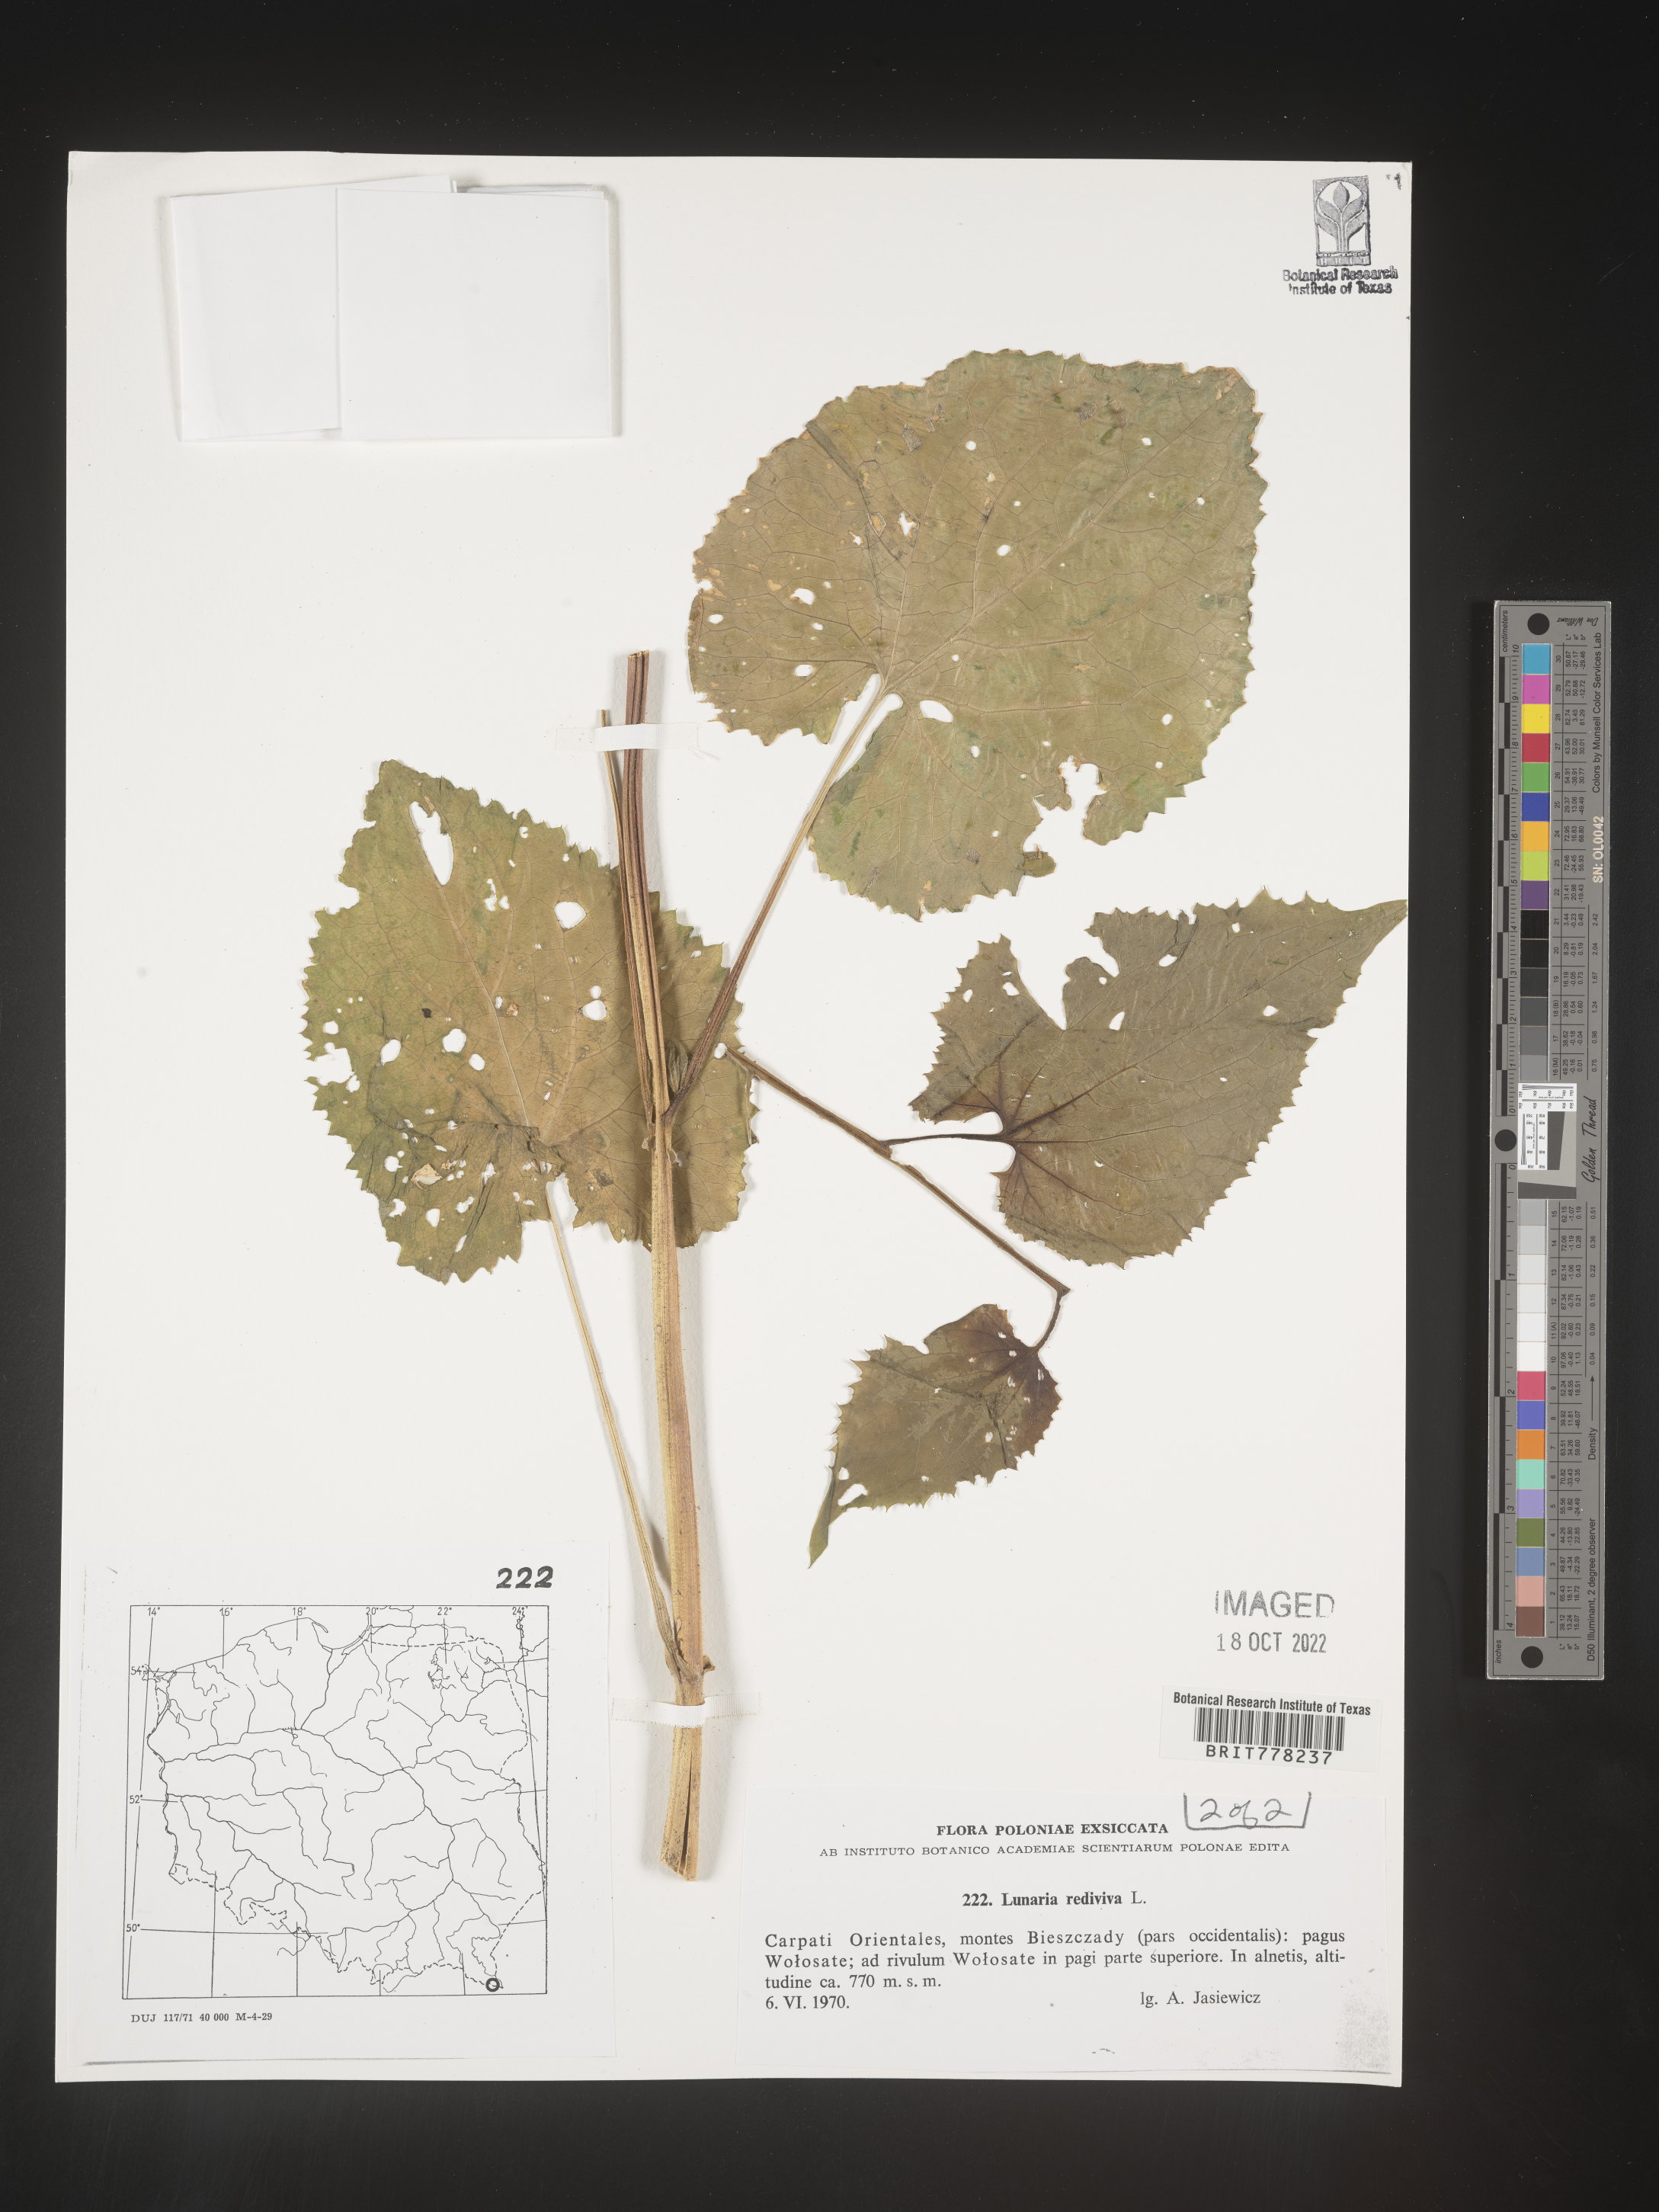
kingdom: Plantae
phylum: Tracheophyta
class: Magnoliopsida
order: Brassicales
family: Brassicaceae
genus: Lunaria
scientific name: Lunaria
